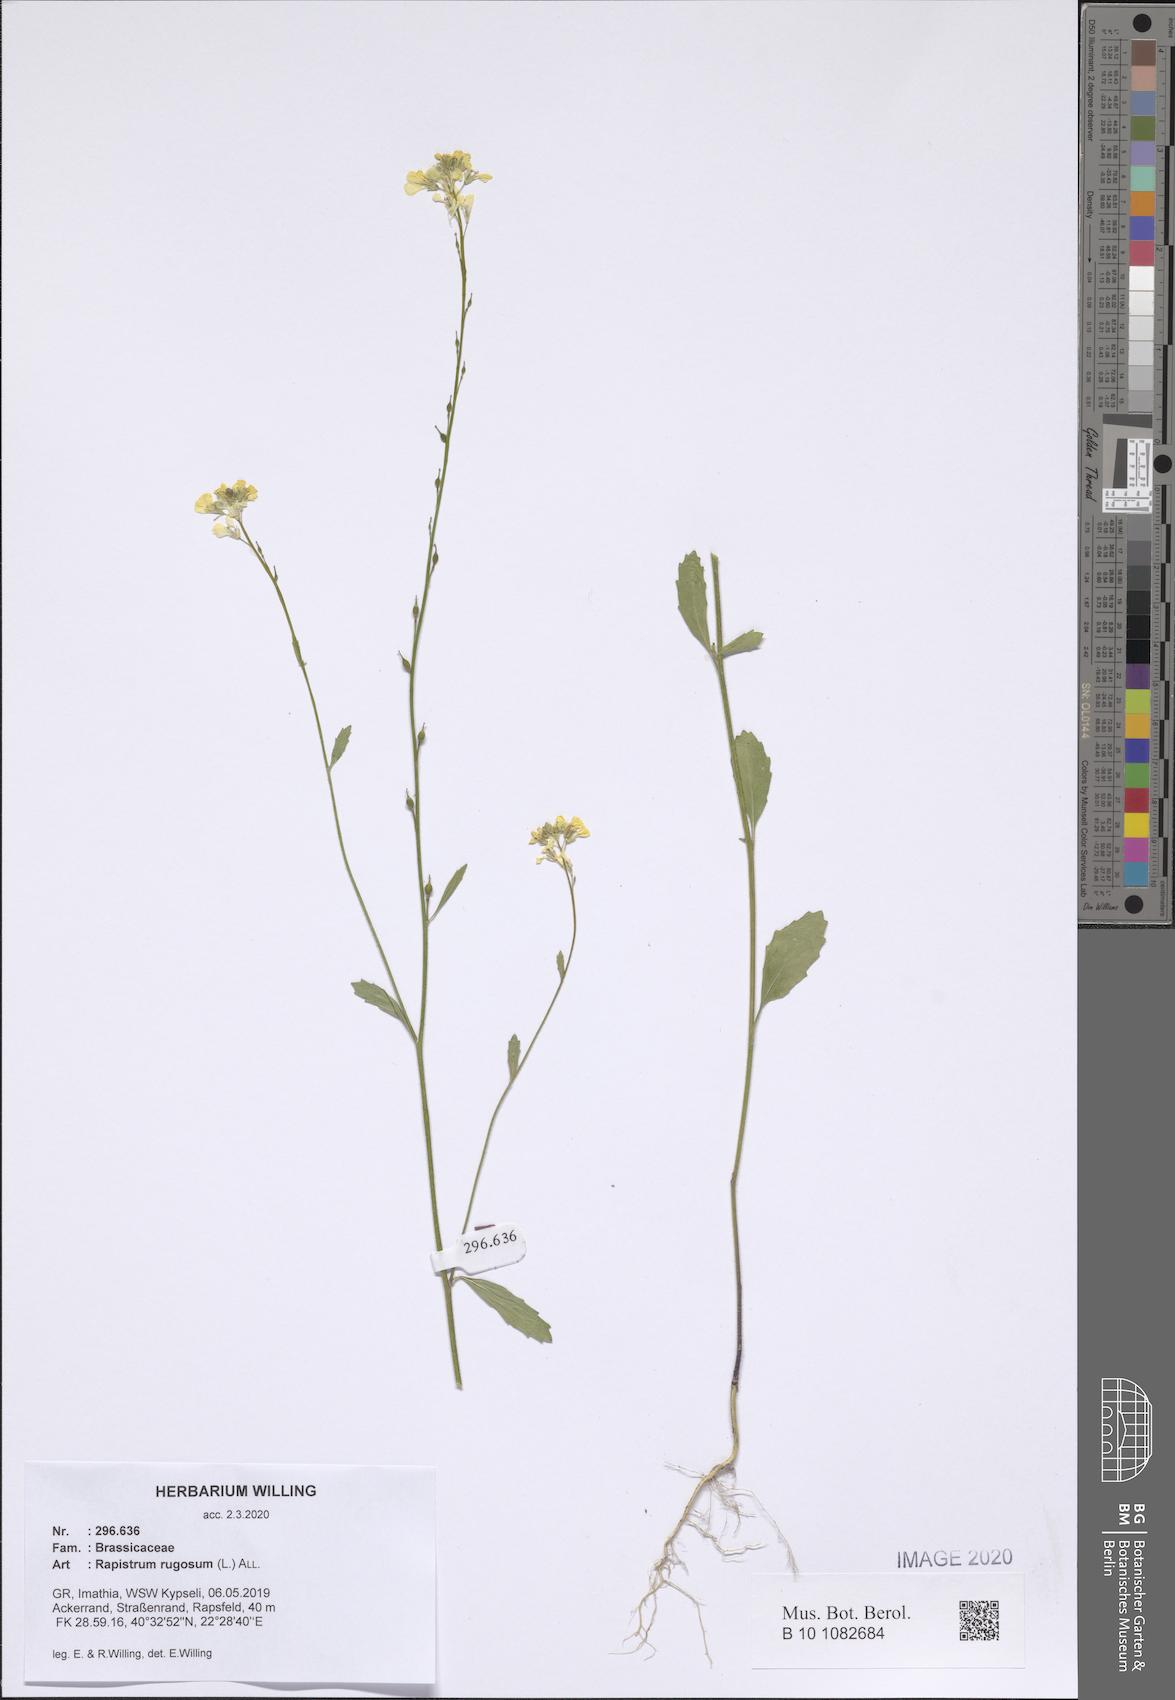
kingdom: Plantae
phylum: Tracheophyta
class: Magnoliopsida
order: Brassicales
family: Brassicaceae
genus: Rapistrum
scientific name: Rapistrum rugosum
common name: Annual bastardcabbage
